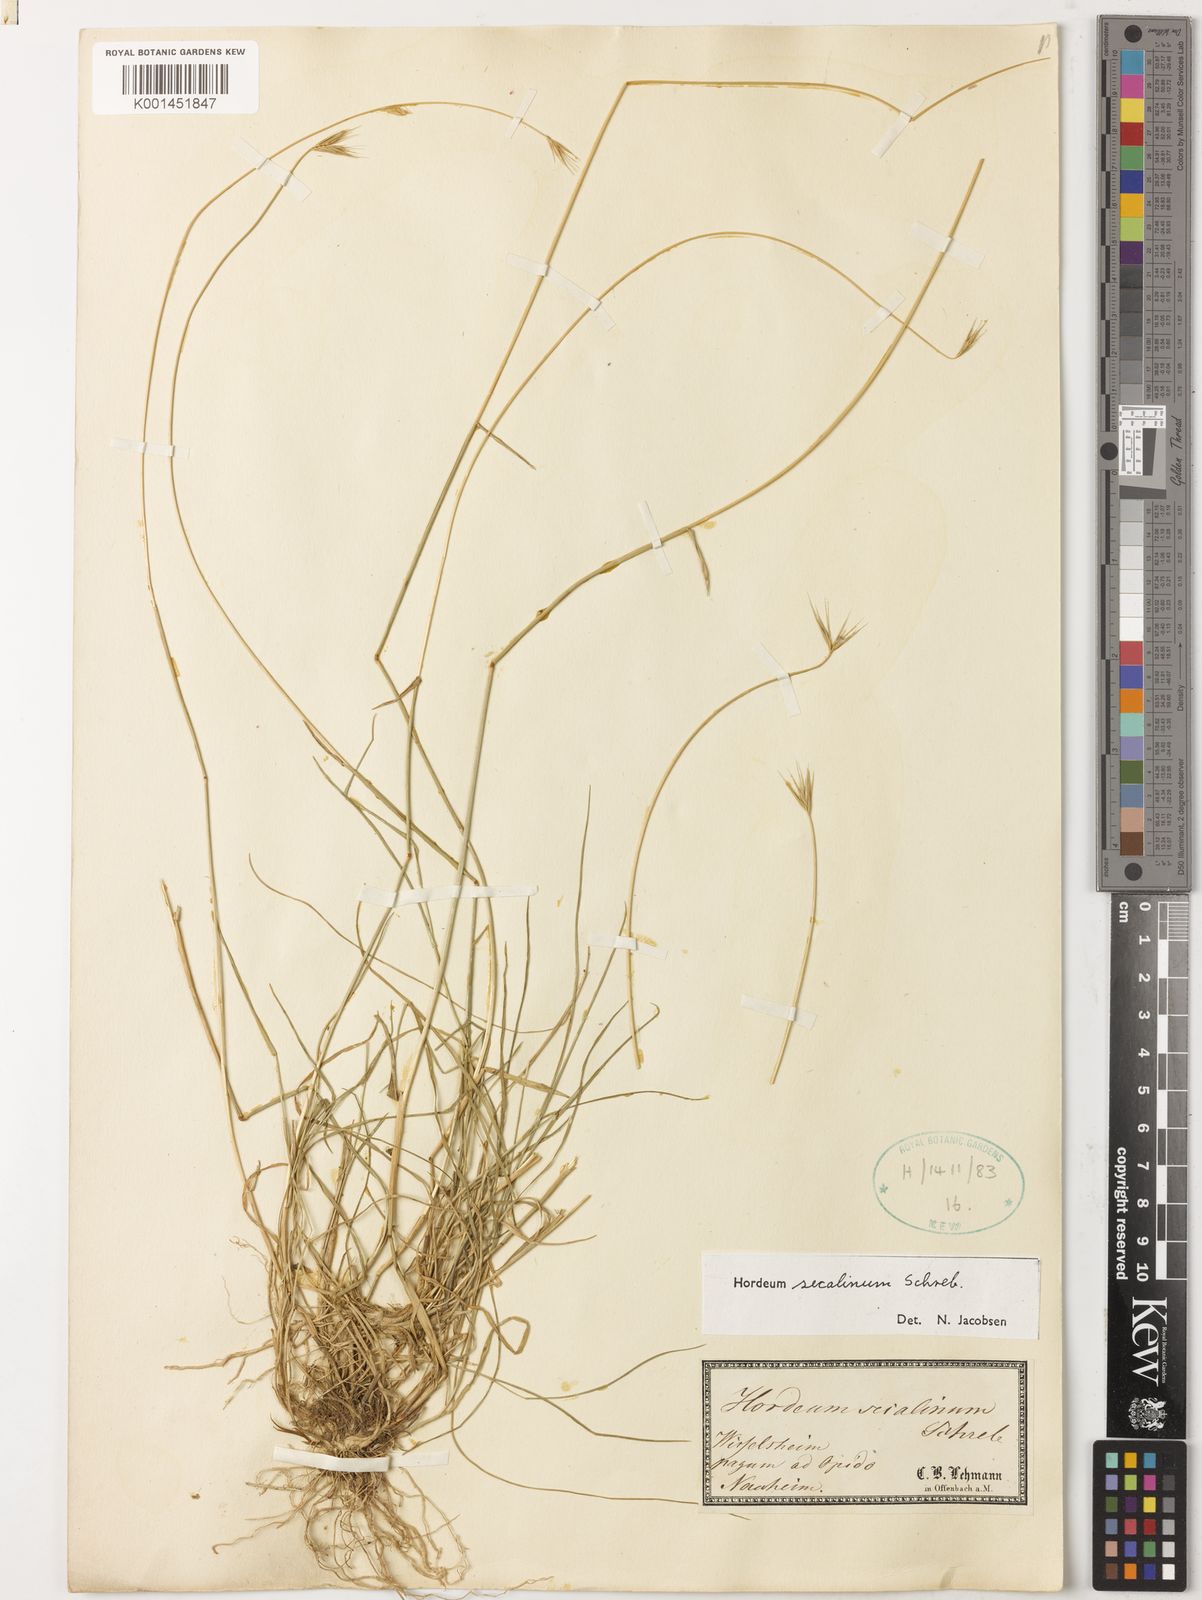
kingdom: Plantae
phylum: Tracheophyta
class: Liliopsida
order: Poales
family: Poaceae
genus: Hordeum
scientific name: Hordeum secalinum
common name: Meadow barley
